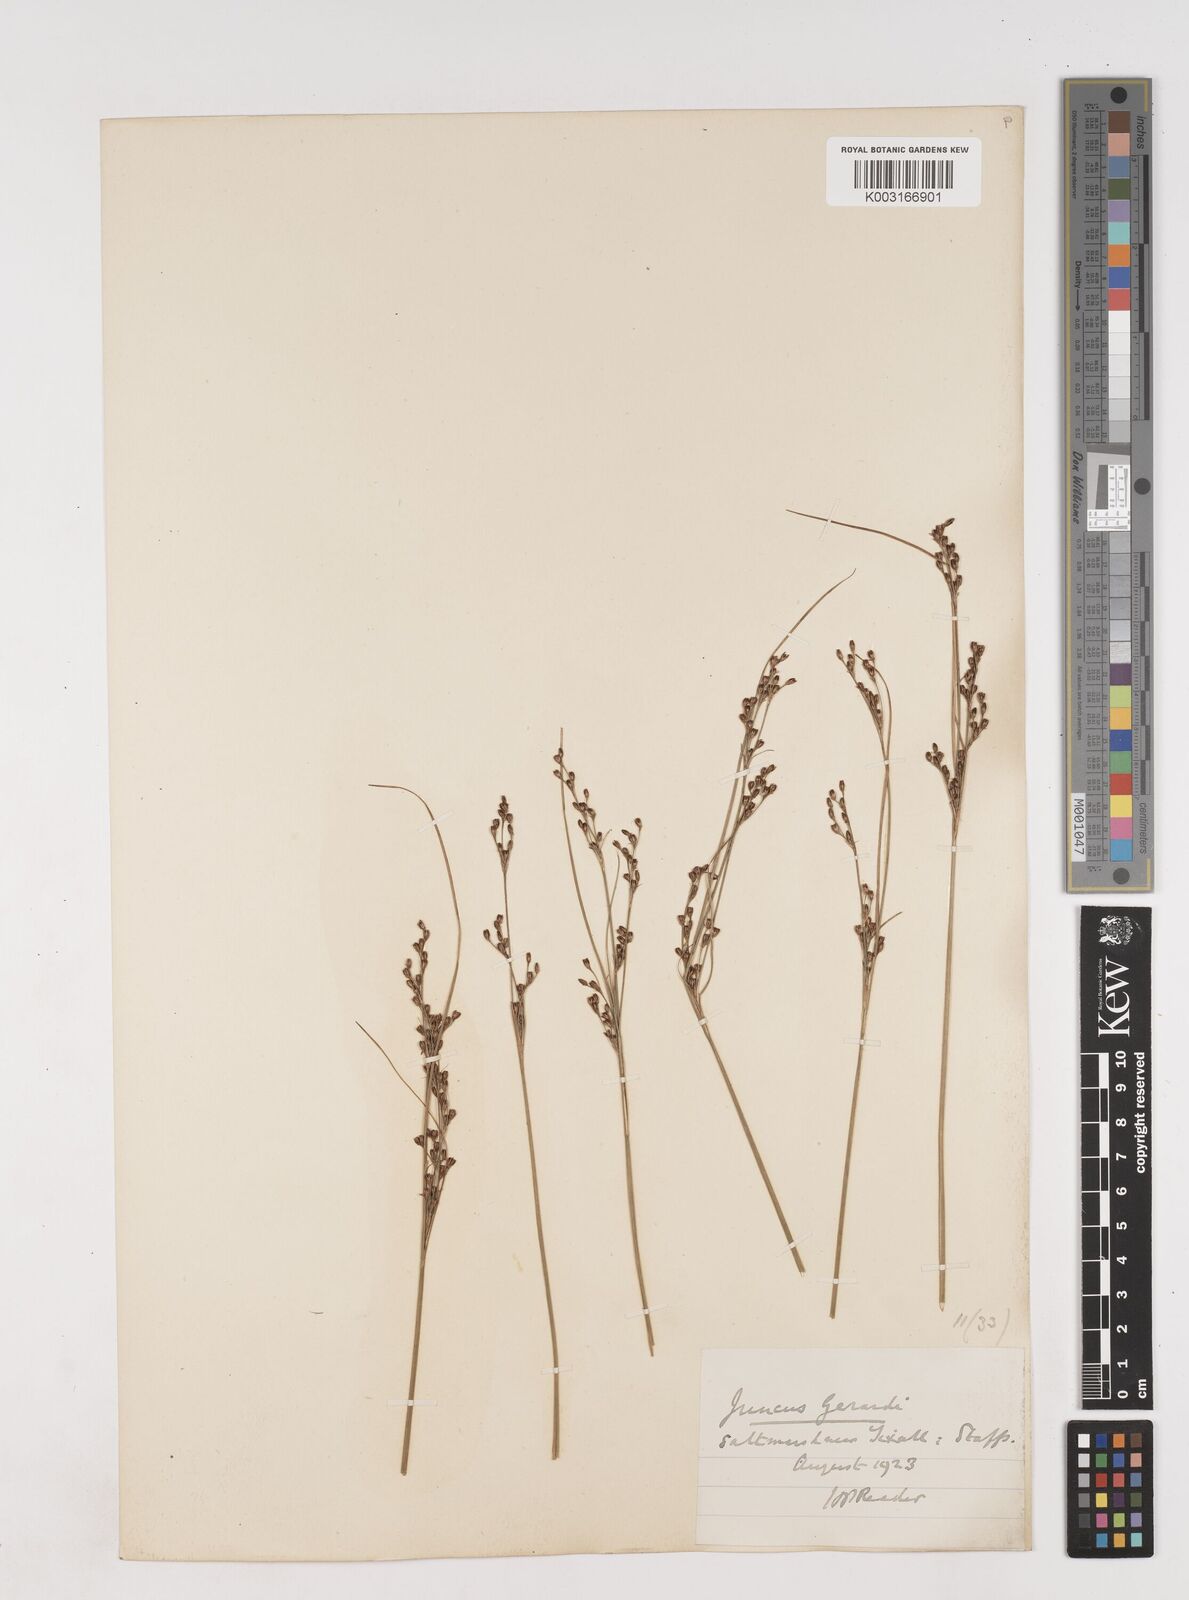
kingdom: Plantae
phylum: Tracheophyta
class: Liliopsida
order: Poales
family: Juncaceae
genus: Juncus
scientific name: Juncus gerardi
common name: Saltmarsh rush
